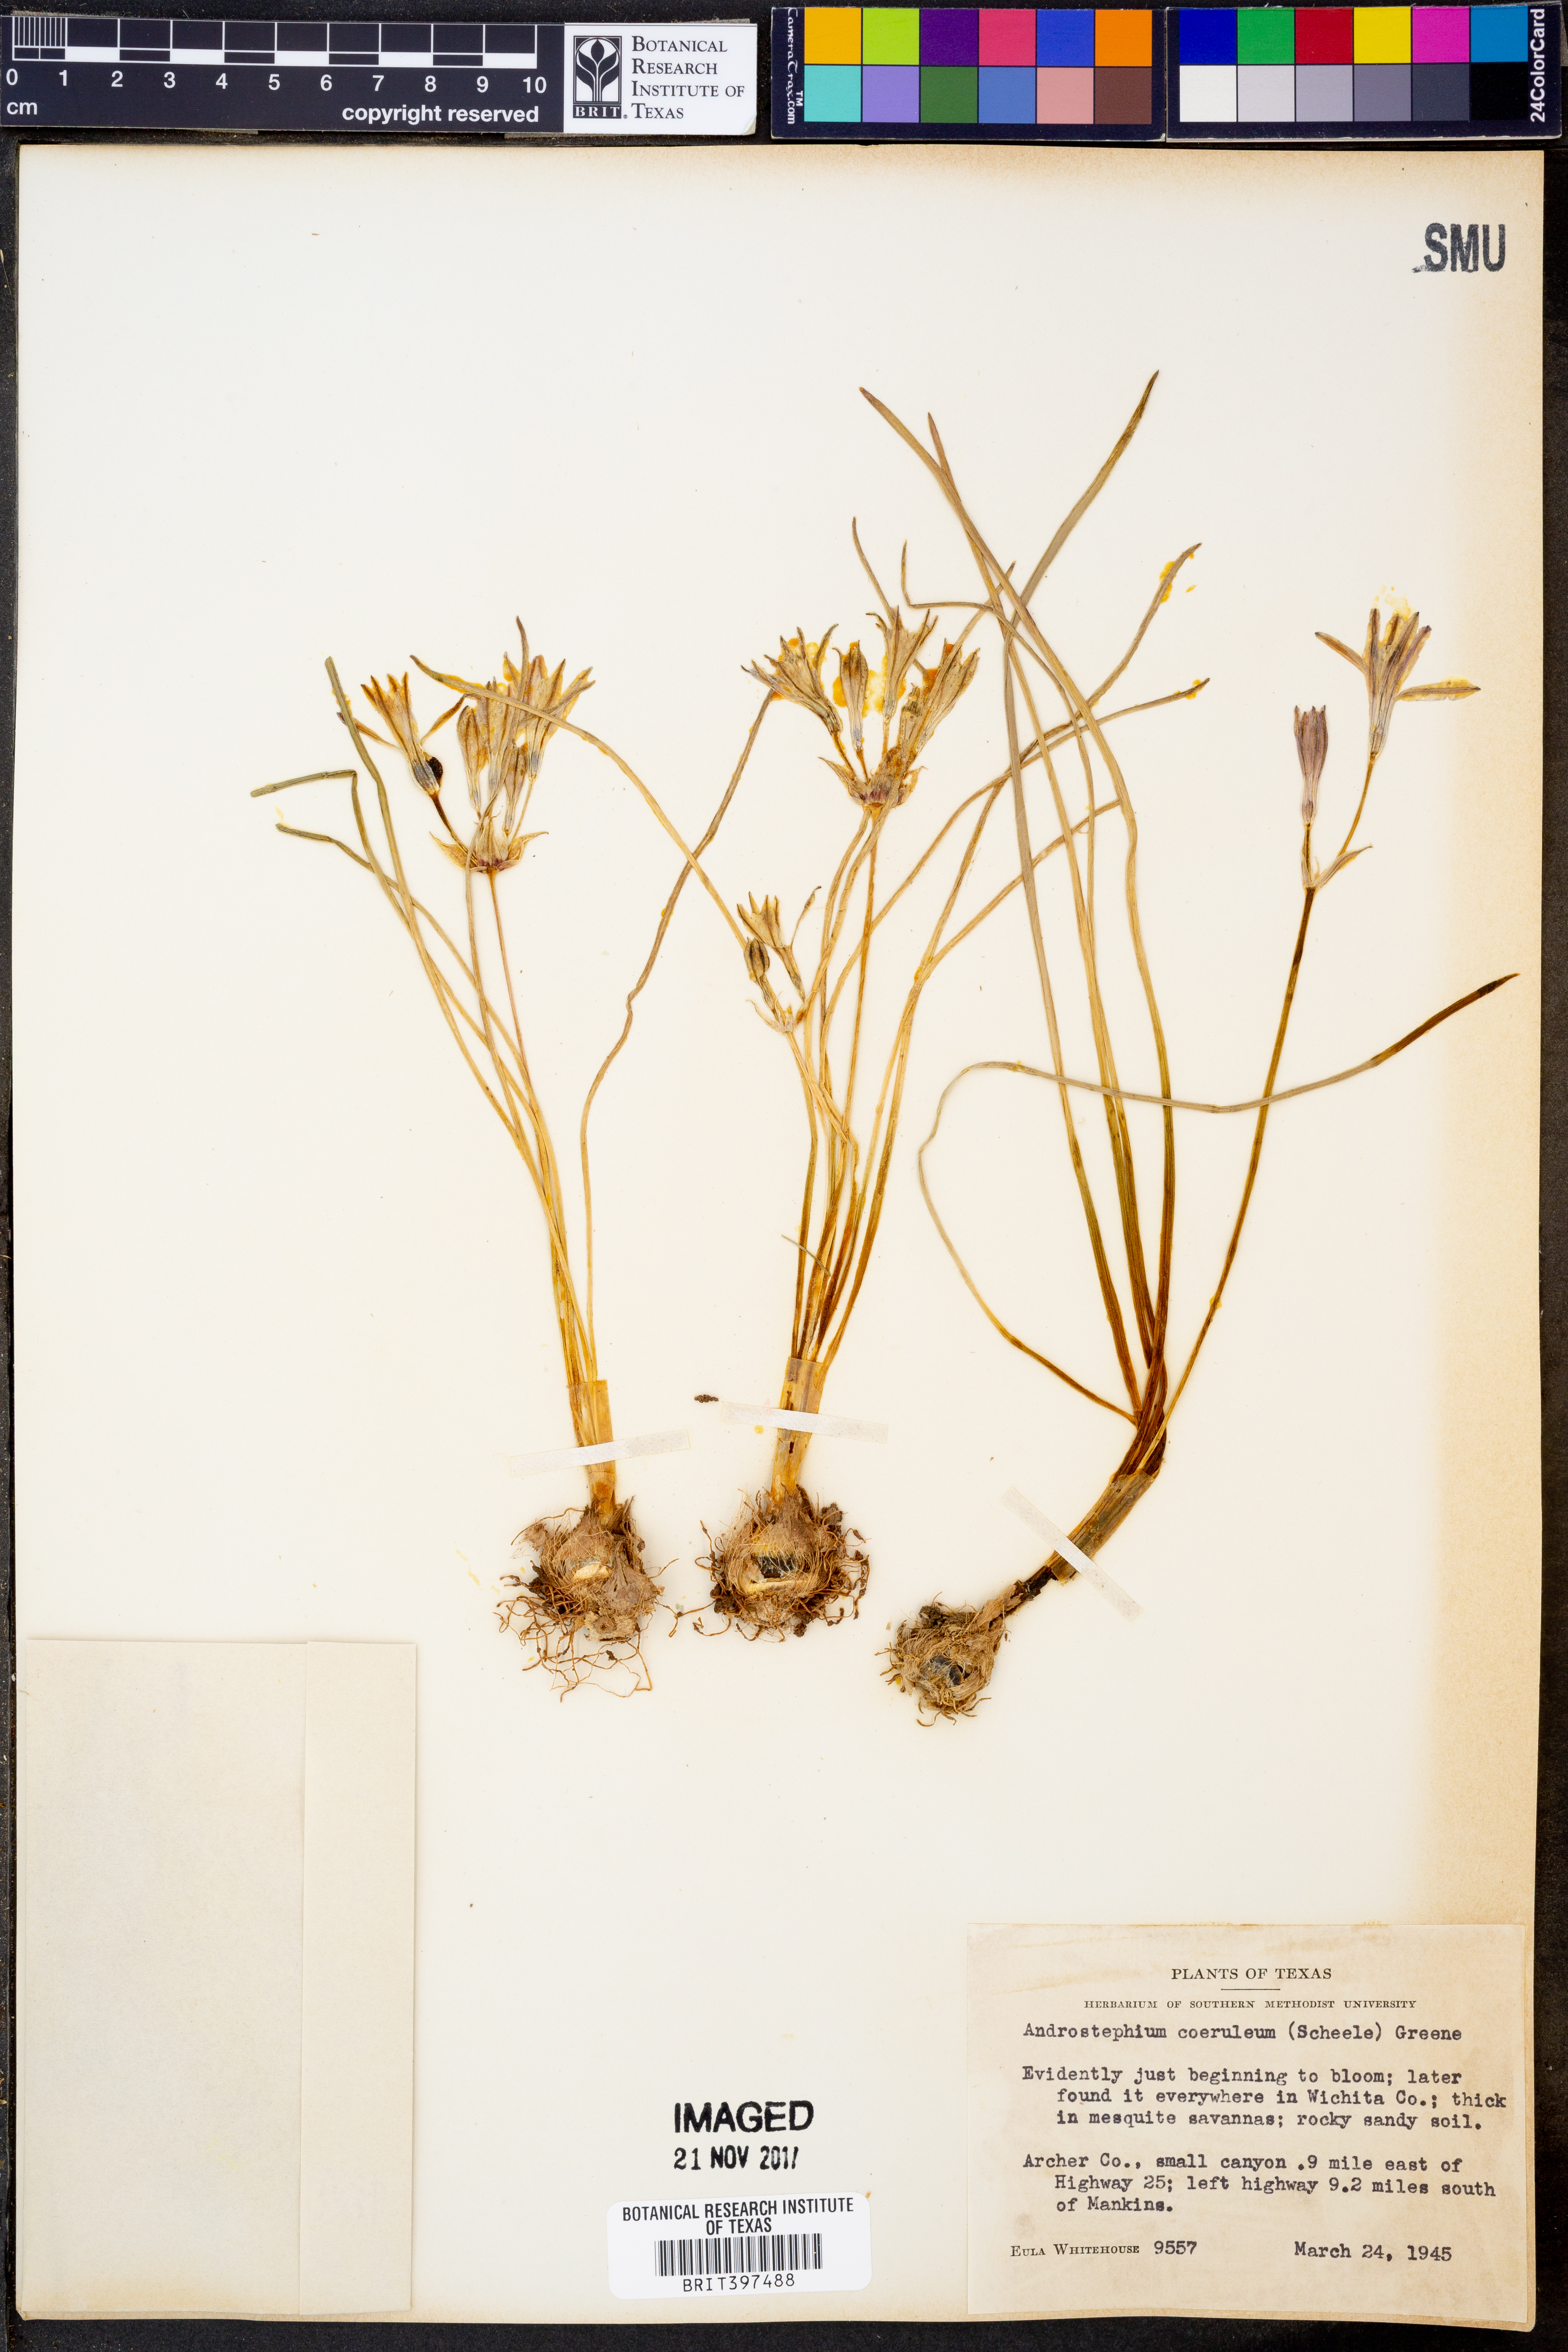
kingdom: Plantae
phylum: Tracheophyta
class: Liliopsida
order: Asparagales
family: Asparagaceae
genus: Androstephium
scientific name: Androstephium caeruleum
